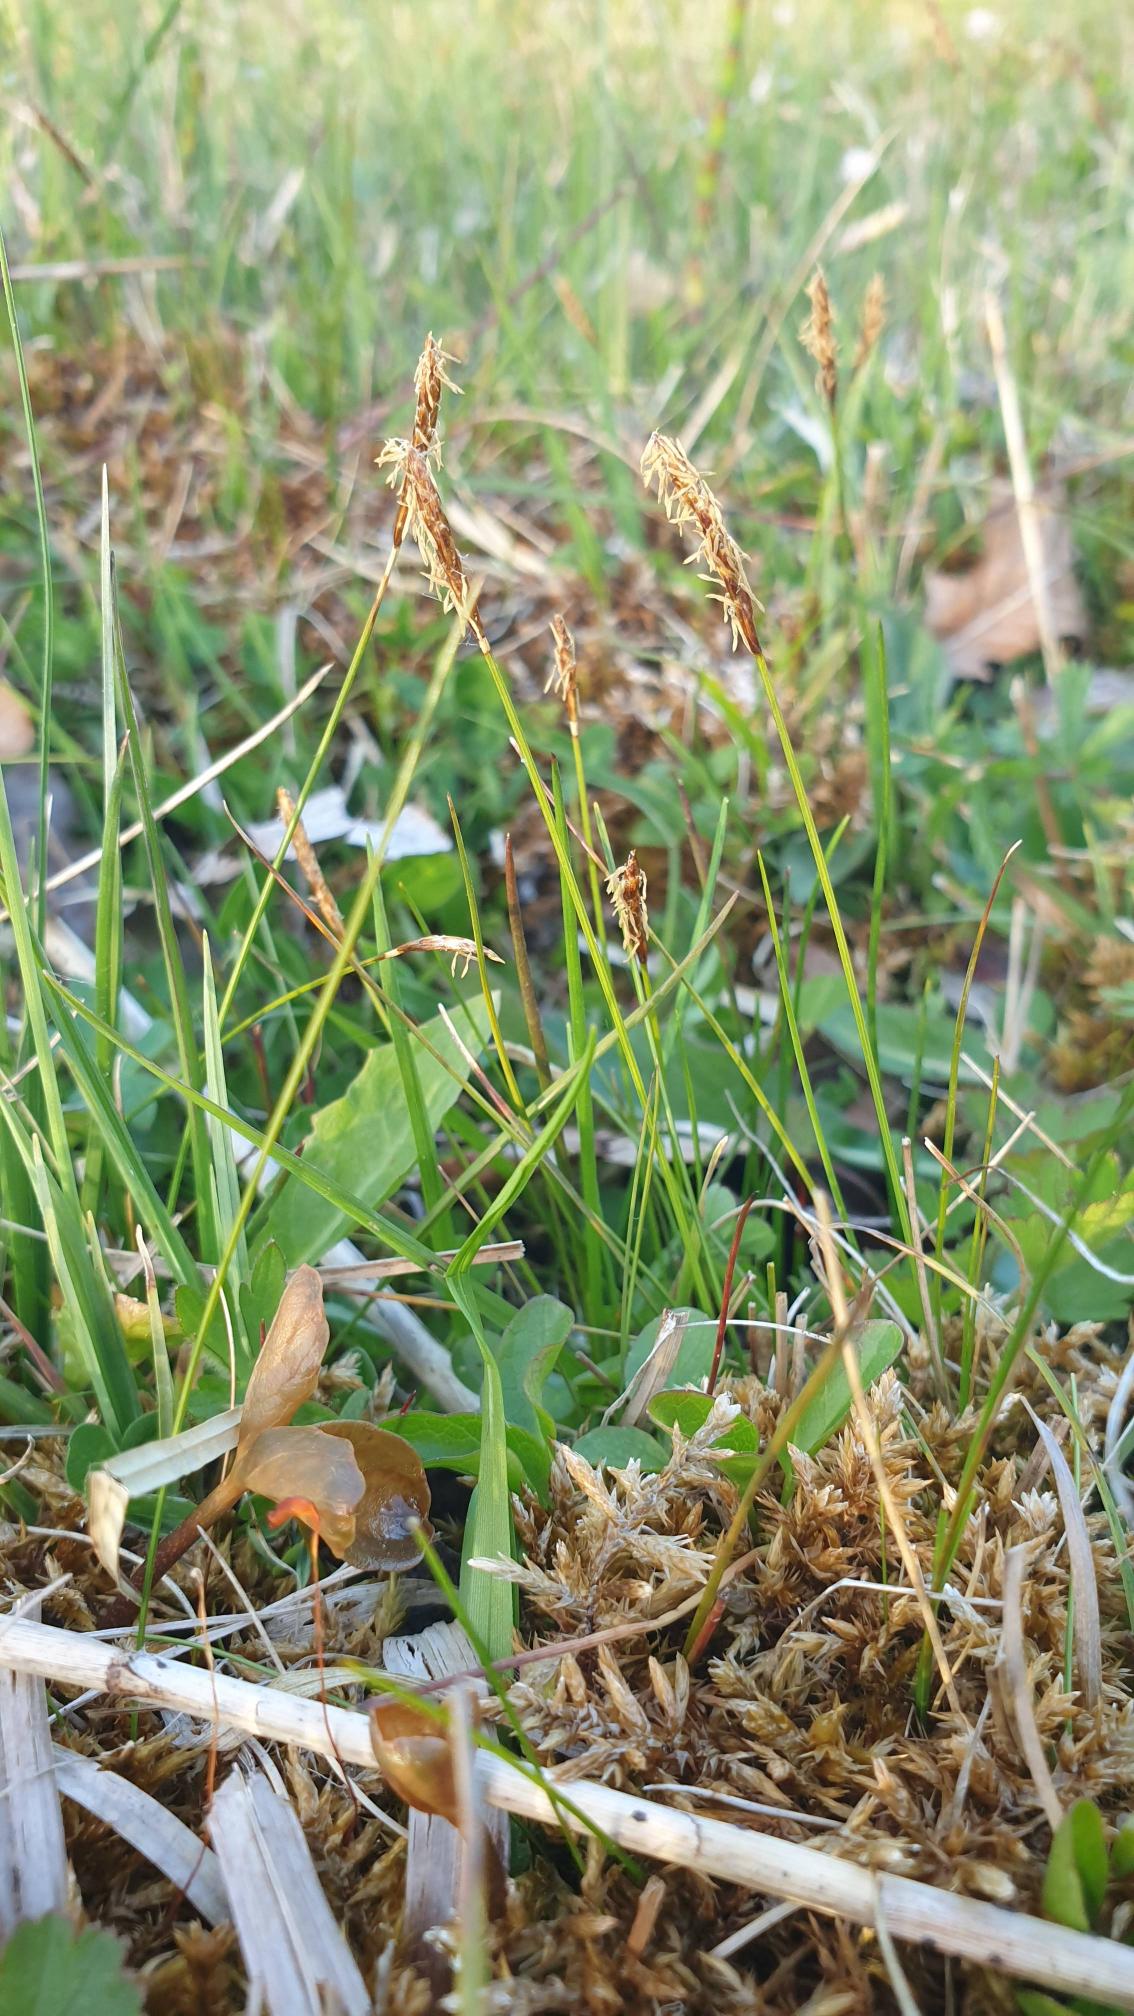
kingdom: Plantae
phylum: Tracheophyta
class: Liliopsida
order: Poales
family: Cyperaceae
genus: Carex
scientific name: Carex dioica
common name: Tvebo star
